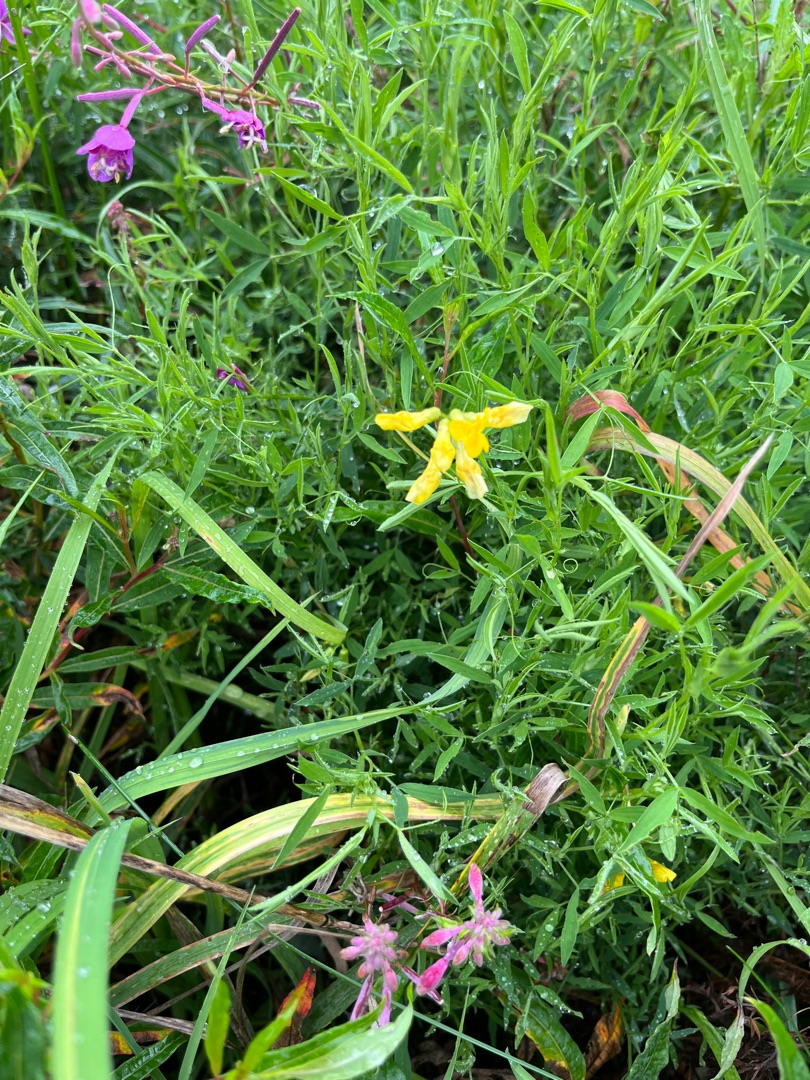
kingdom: Plantae
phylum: Tracheophyta
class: Magnoliopsida
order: Fabales
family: Fabaceae
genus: Lathyrus
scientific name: Lathyrus pratensis
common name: Gul fladbælg
